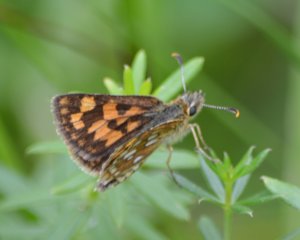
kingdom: Animalia
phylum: Arthropoda
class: Insecta
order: Lepidoptera
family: Hesperiidae
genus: Carterocephalus
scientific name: Carterocephalus palaemon
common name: Chequered Skipper
